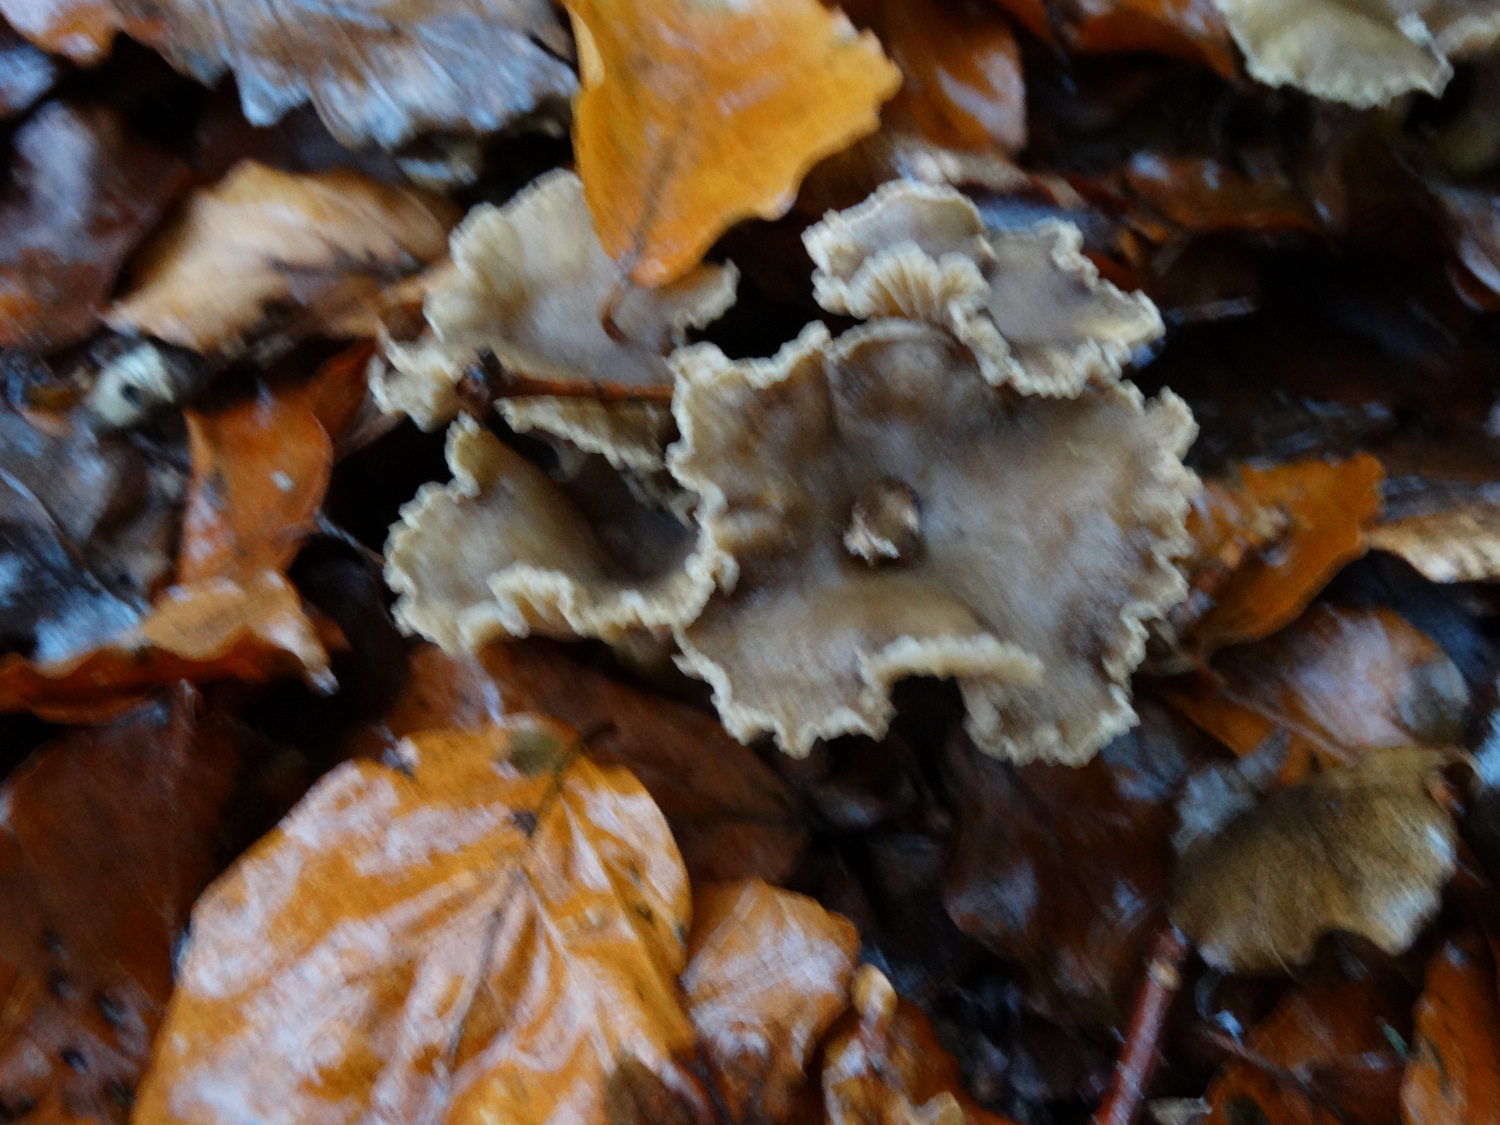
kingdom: Fungi
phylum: Basidiomycota
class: Agaricomycetes
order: Cantharellales
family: Hydnaceae
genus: Craterellus
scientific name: Craterellus tubaeformis
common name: tragt-kantarel
